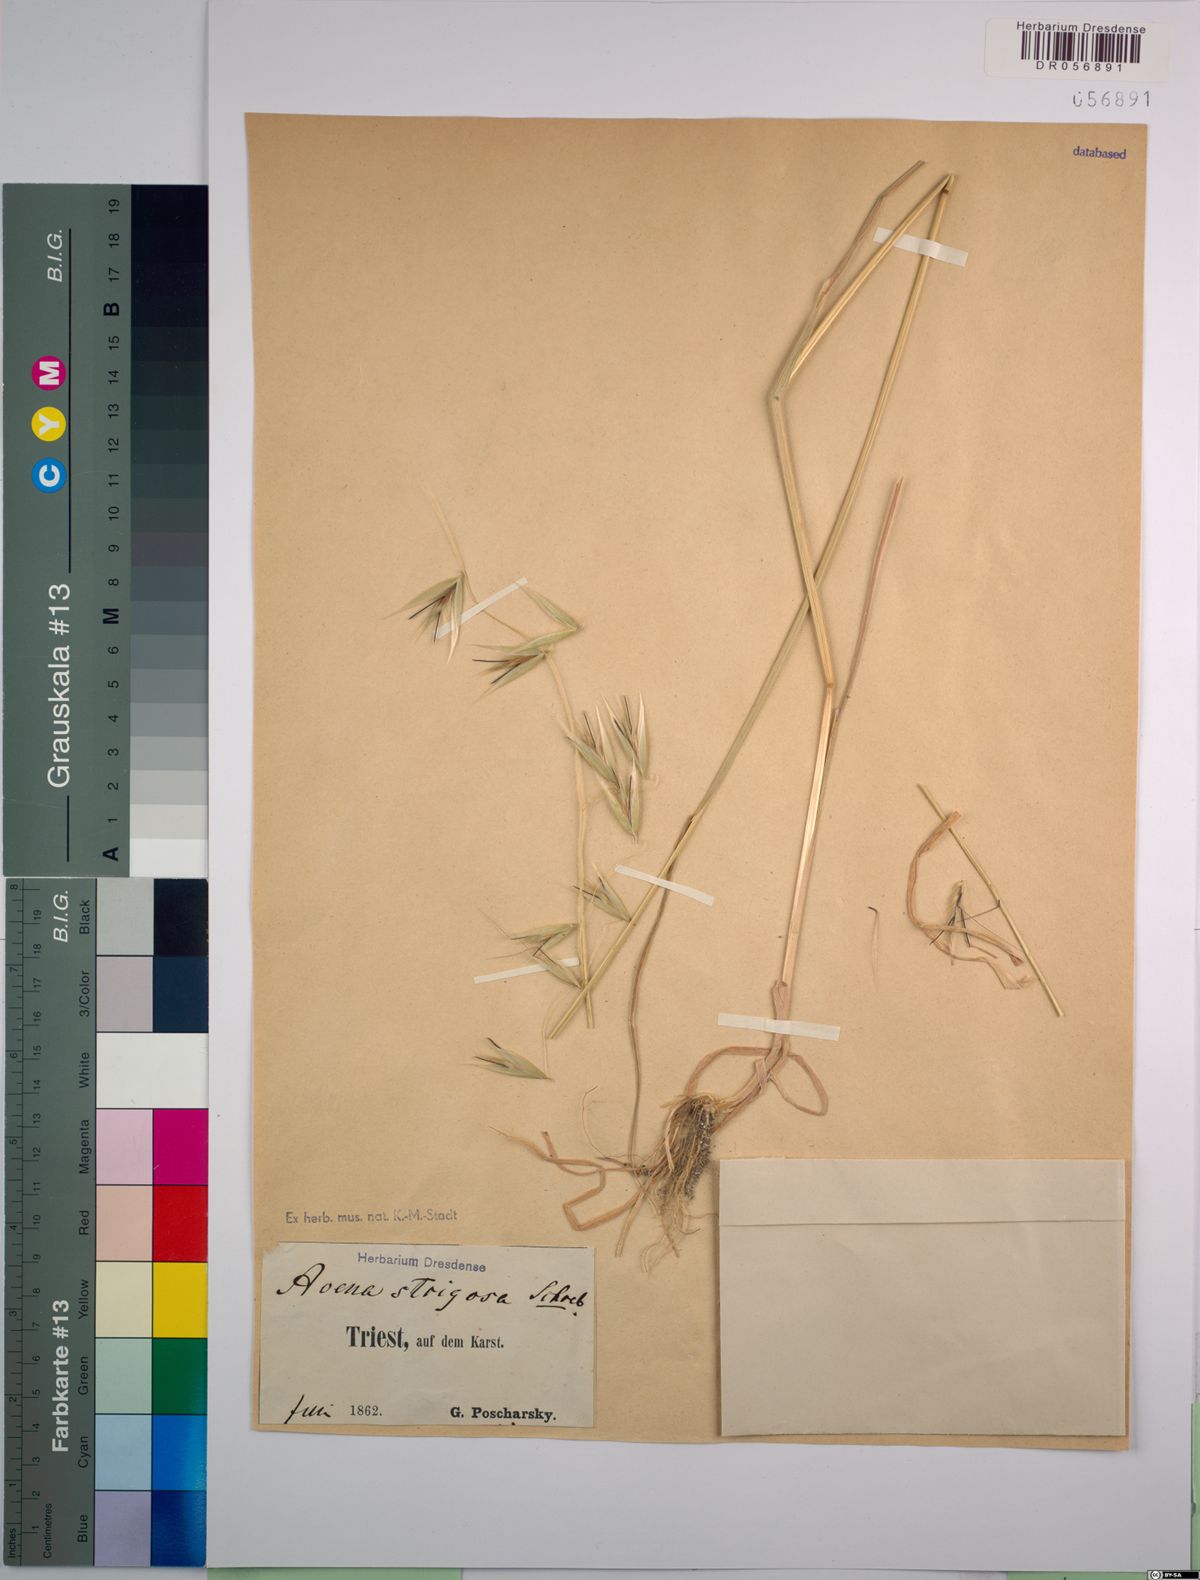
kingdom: Plantae
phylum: Tracheophyta
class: Liliopsida
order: Poales
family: Poaceae
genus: Avena
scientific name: Avena strigosa
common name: Bristle oat
